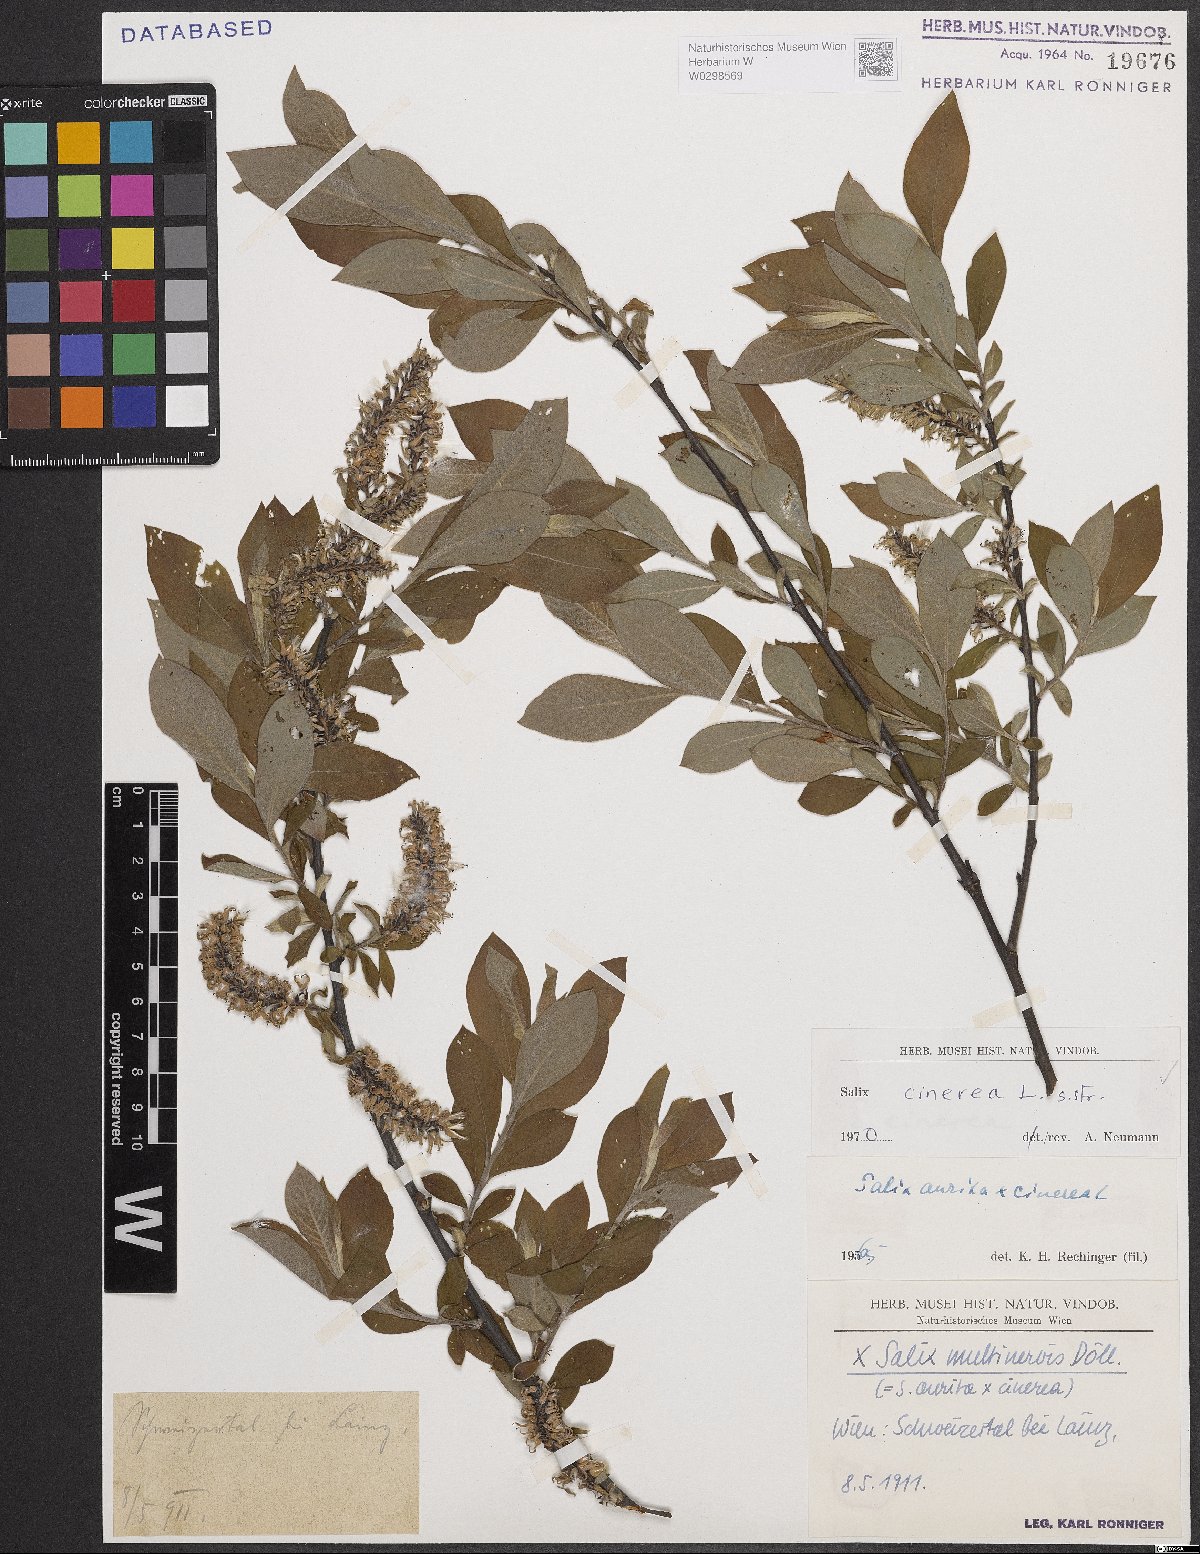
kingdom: Plantae
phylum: Tracheophyta
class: Magnoliopsida
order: Malpighiales
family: Salicaceae
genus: Salix
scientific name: Salix cinerea
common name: Common sallow
